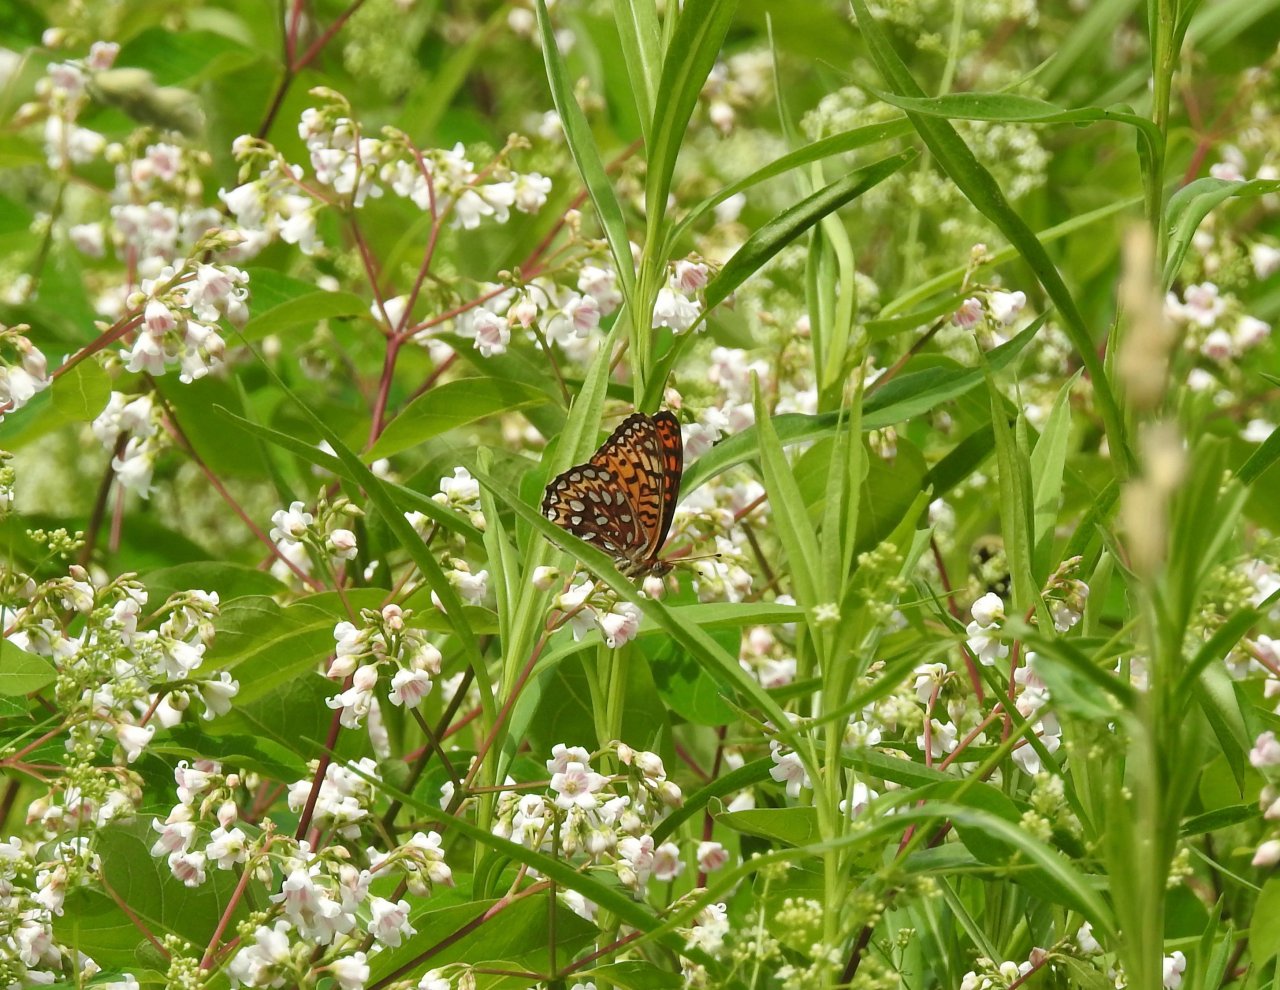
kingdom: Animalia
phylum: Arthropoda
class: Insecta
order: Lepidoptera
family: Nymphalidae
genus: Speyeria
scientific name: Speyeria atlantis
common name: Atlantis Fritillary
